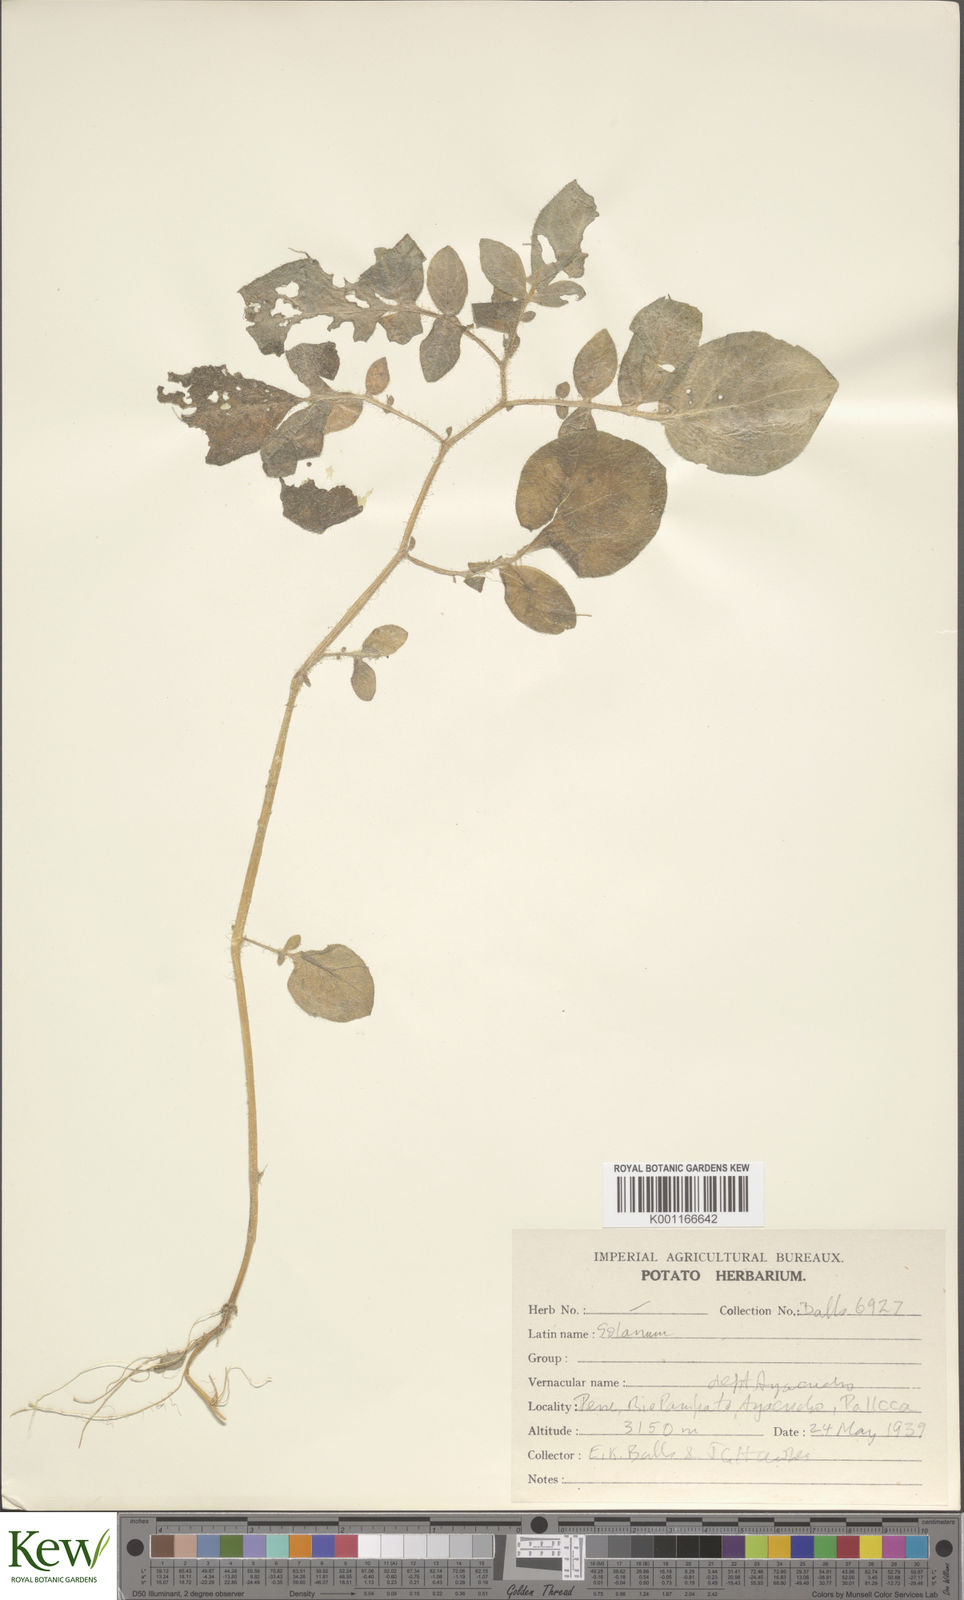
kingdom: Plantae
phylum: Tracheophyta
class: Magnoliopsida
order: Solanales
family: Solanaceae
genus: Solanum
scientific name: Solanum
